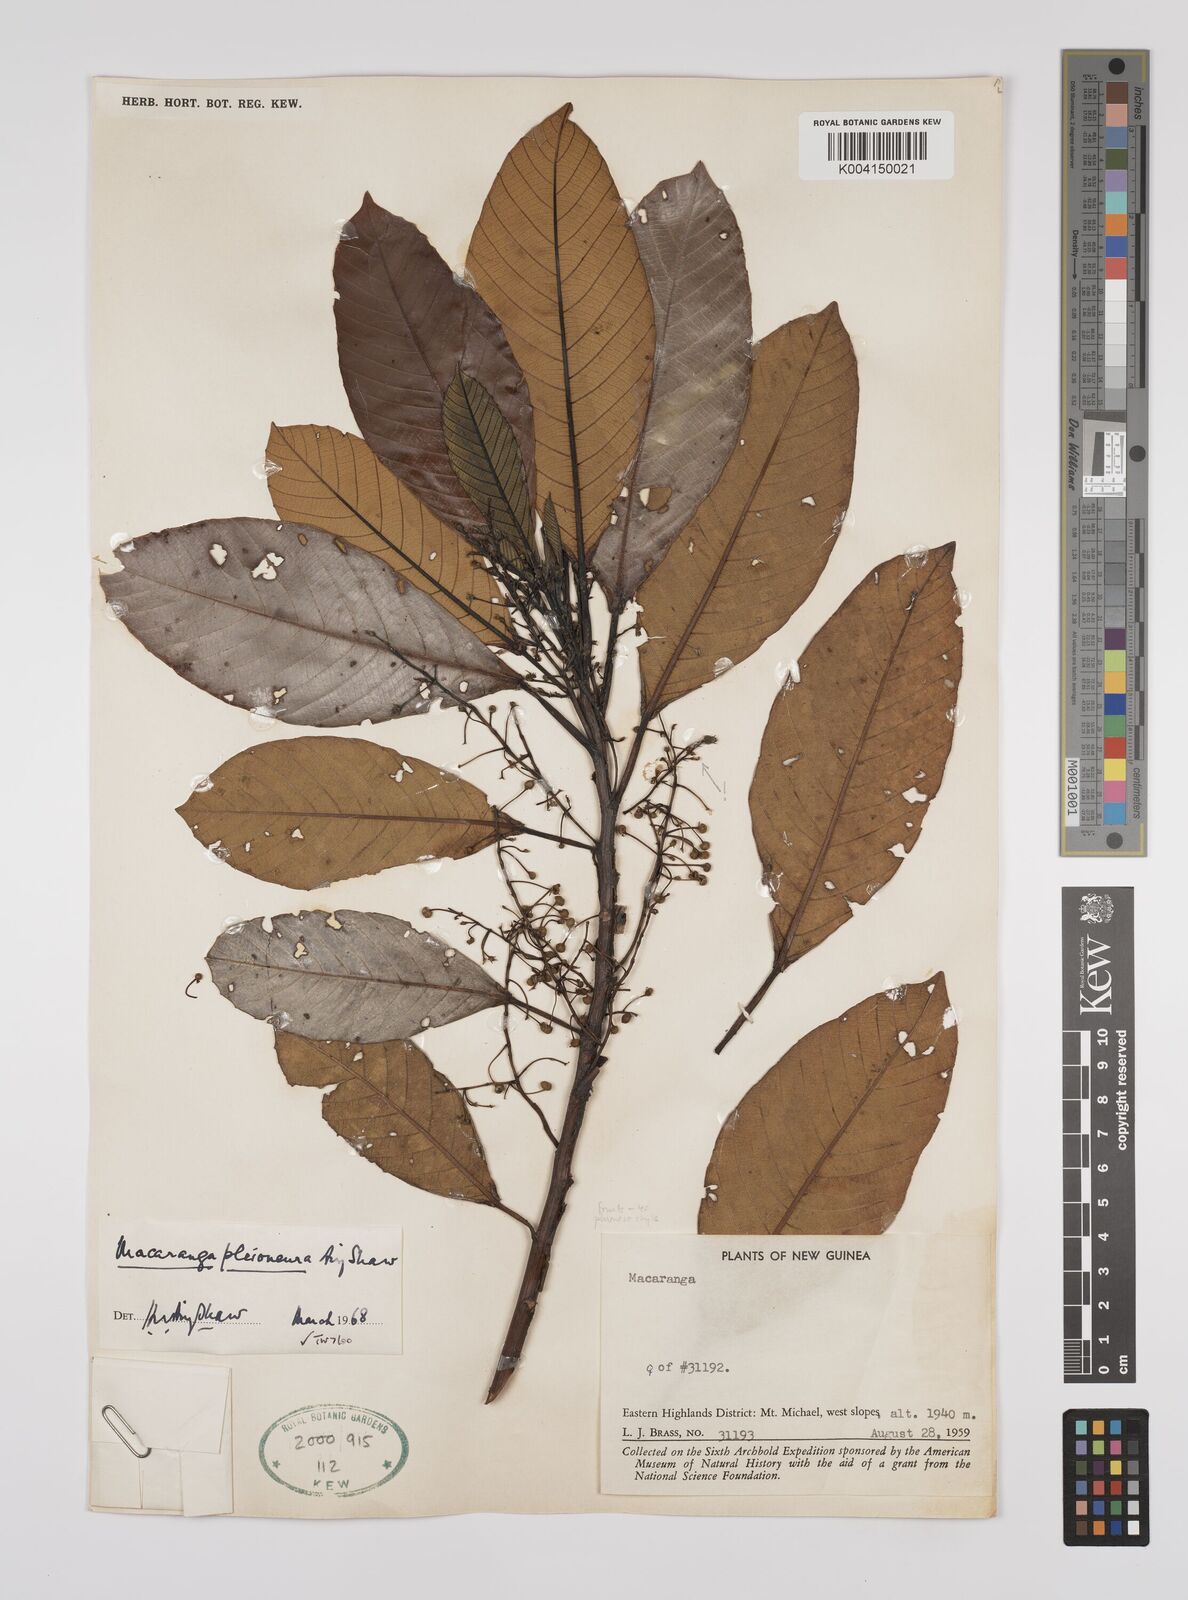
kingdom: Plantae
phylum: Tracheophyta
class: Magnoliopsida
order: Malpighiales
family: Euphorbiaceae
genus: Macaranga
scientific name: Macaranga pleioneura
